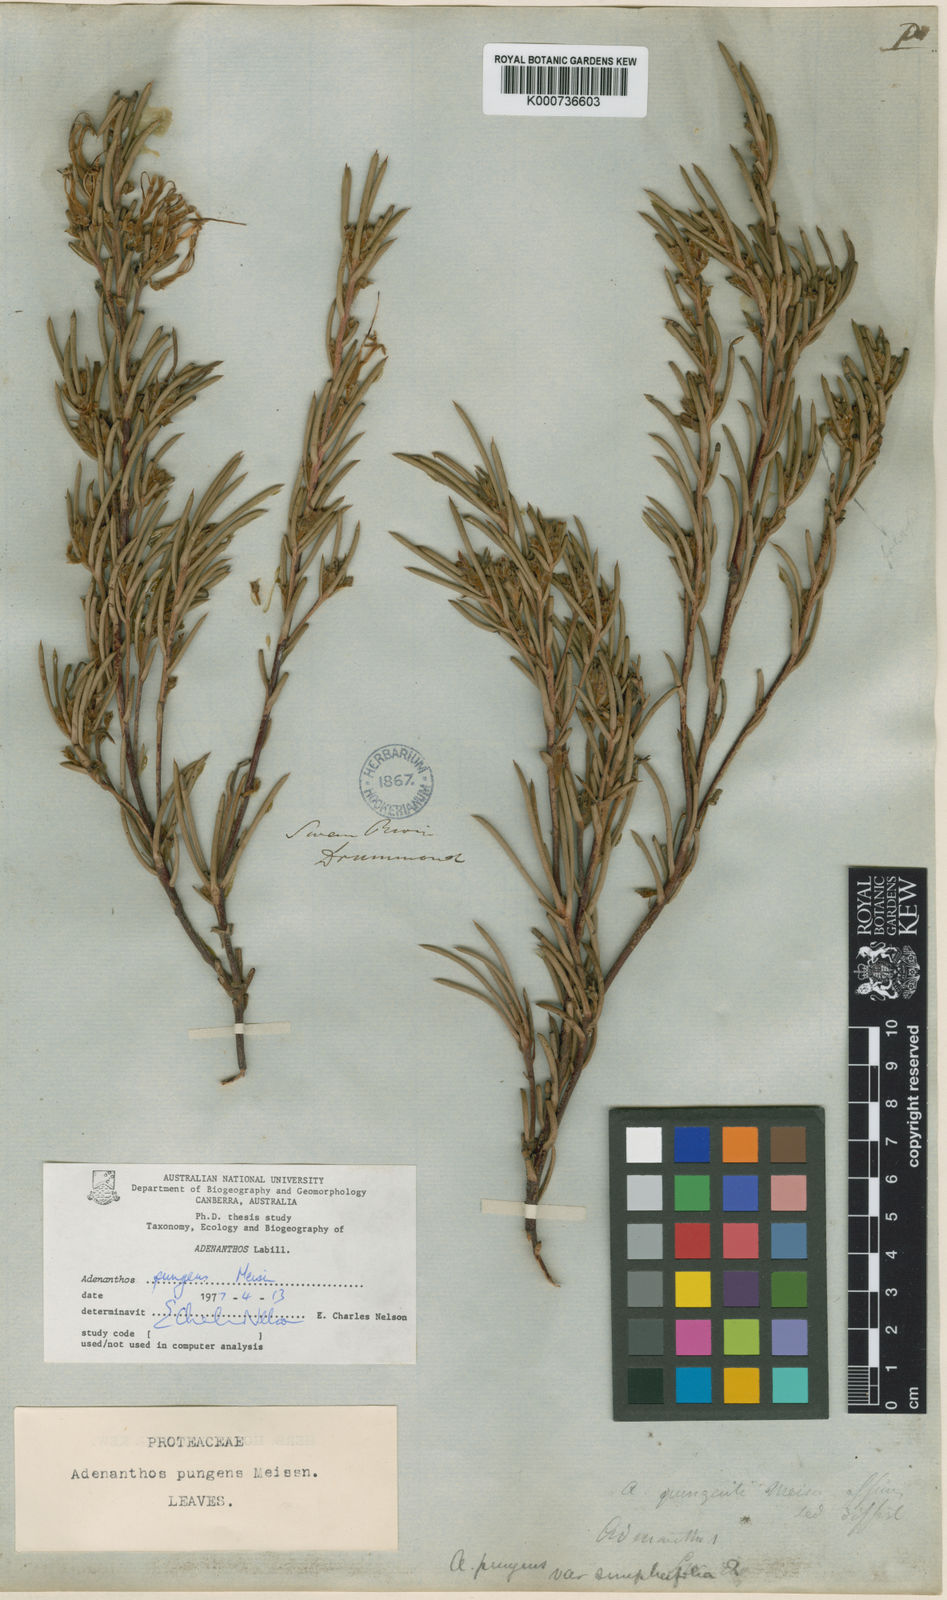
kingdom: Plantae
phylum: Tracheophyta
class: Magnoliopsida
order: Proteales
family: Proteaceae
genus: Adenanthos
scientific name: Adenanthos pungens
